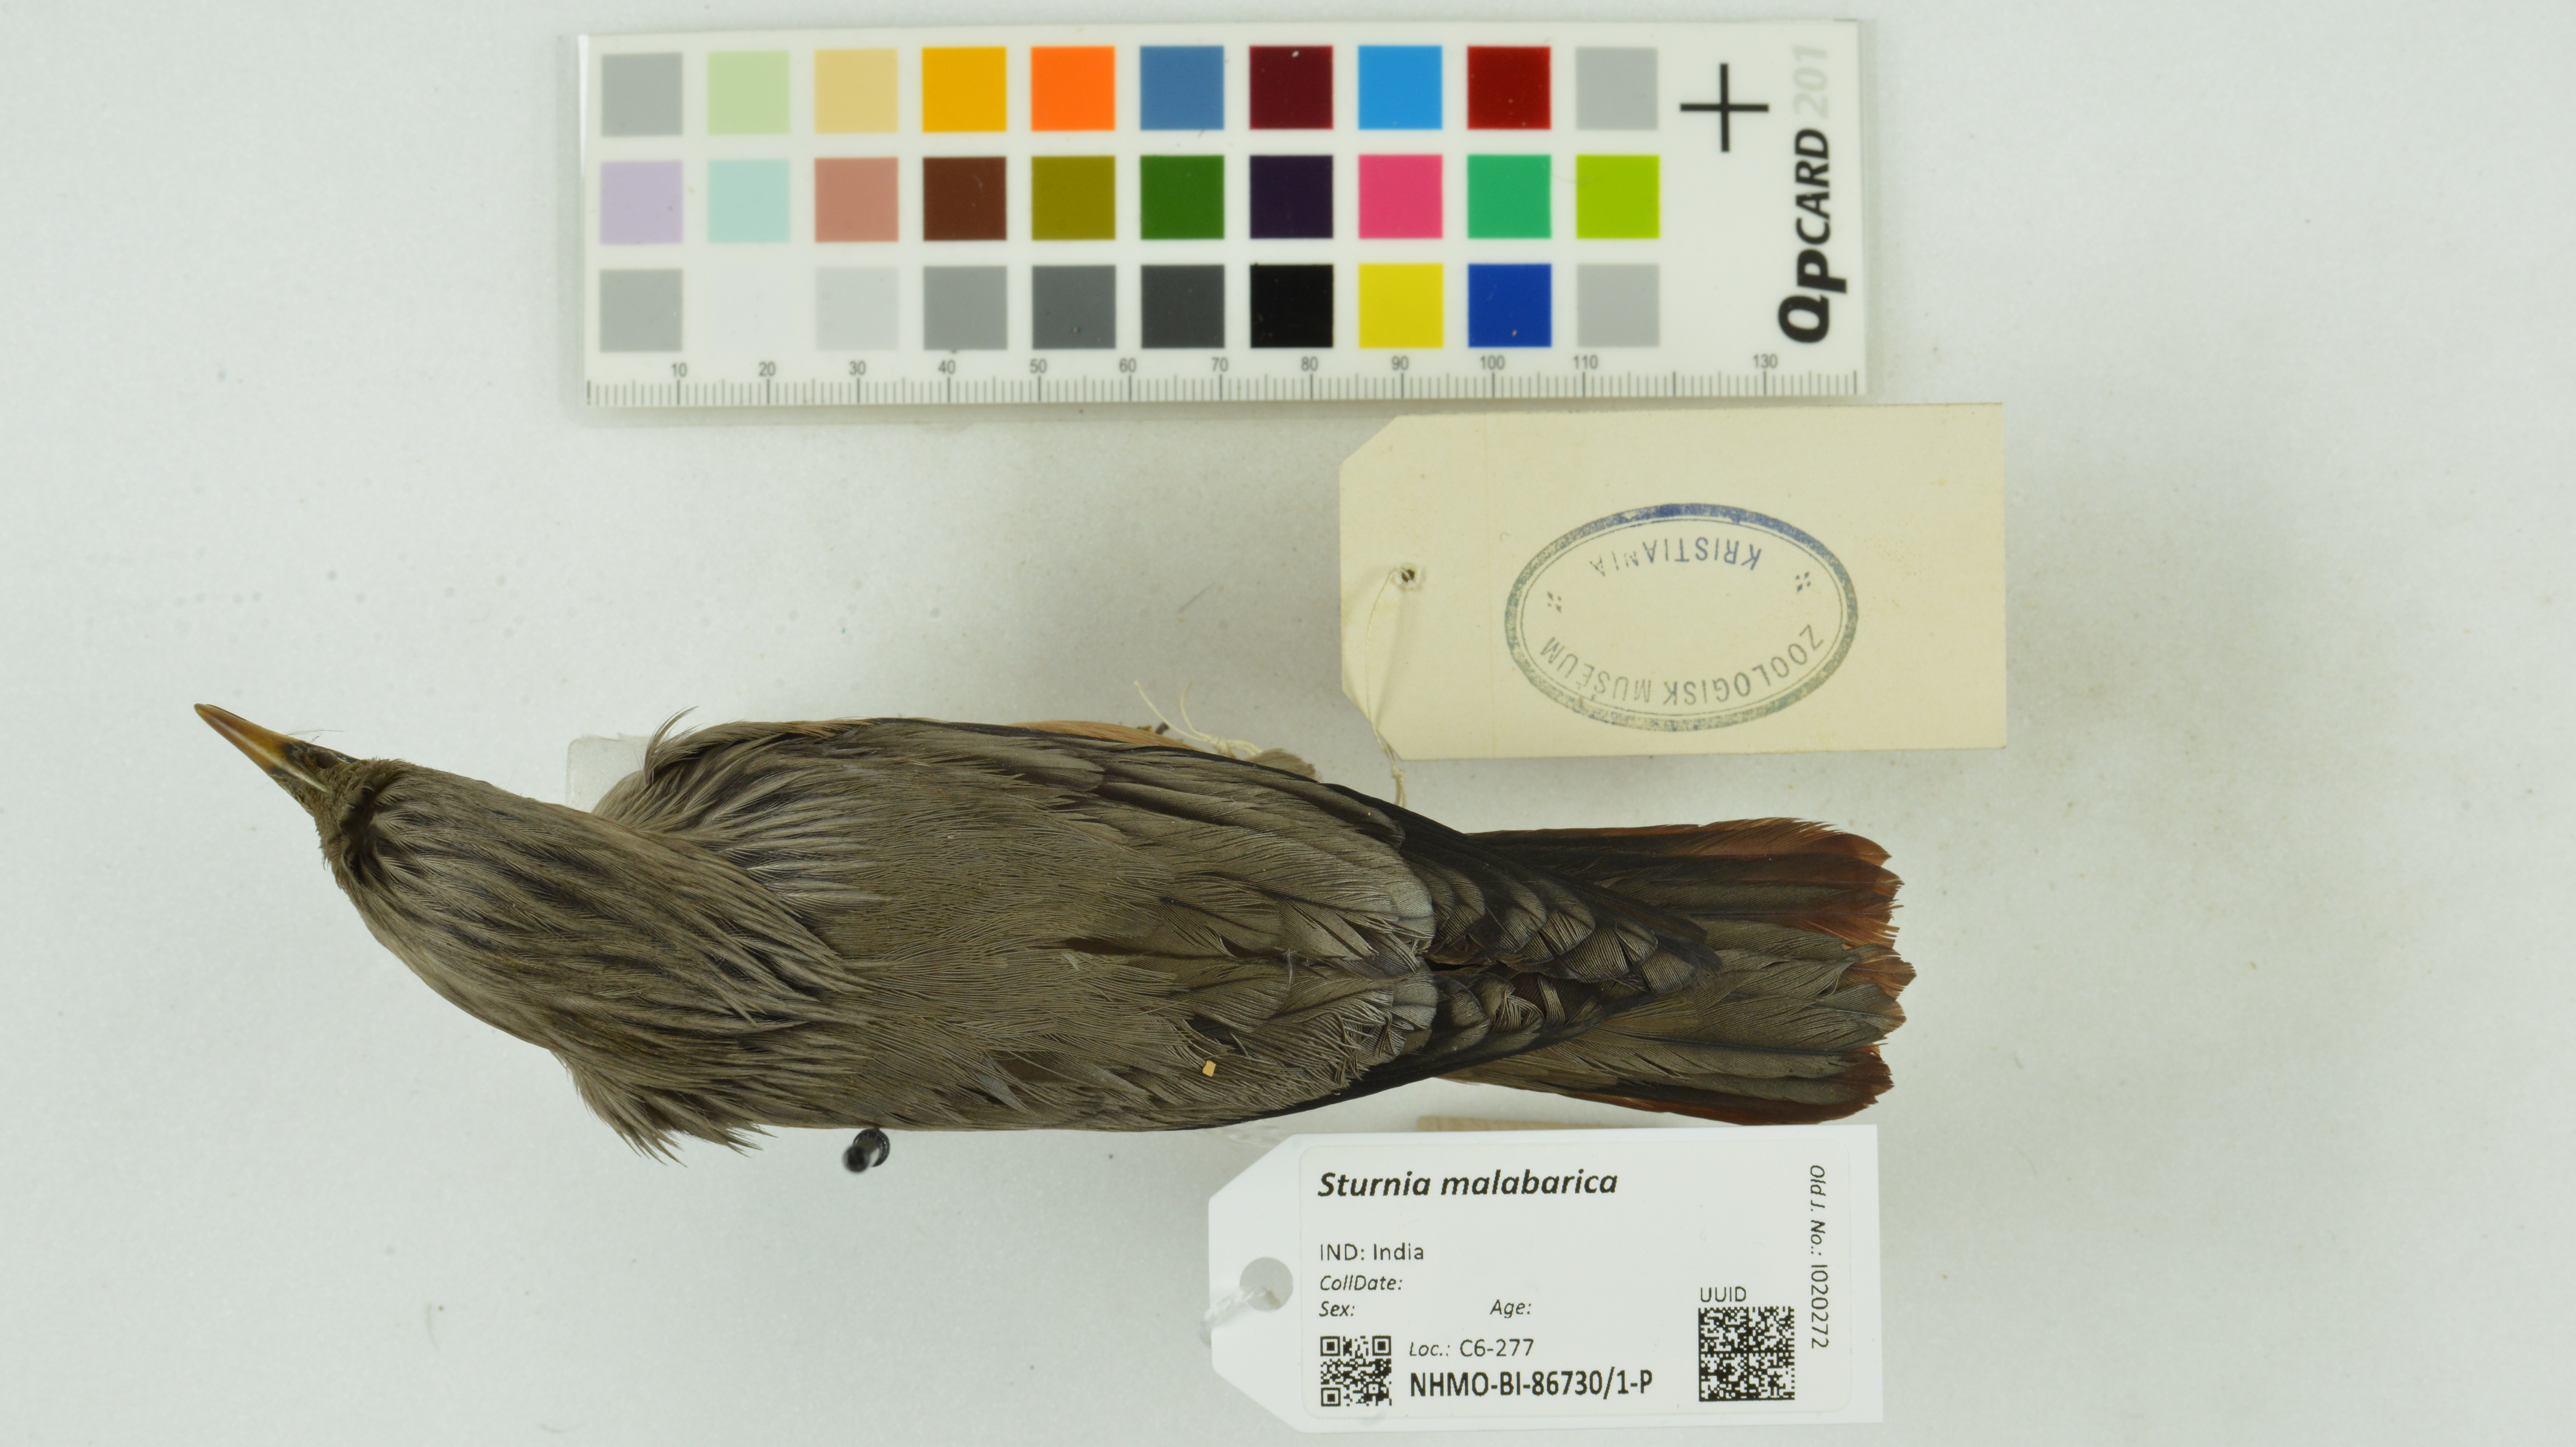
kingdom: Animalia
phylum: Chordata
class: Aves
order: Passeriformes
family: Sturnidae
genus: Sturnia
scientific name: Sturnia malabarica
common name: Chestnut-tailed starling
